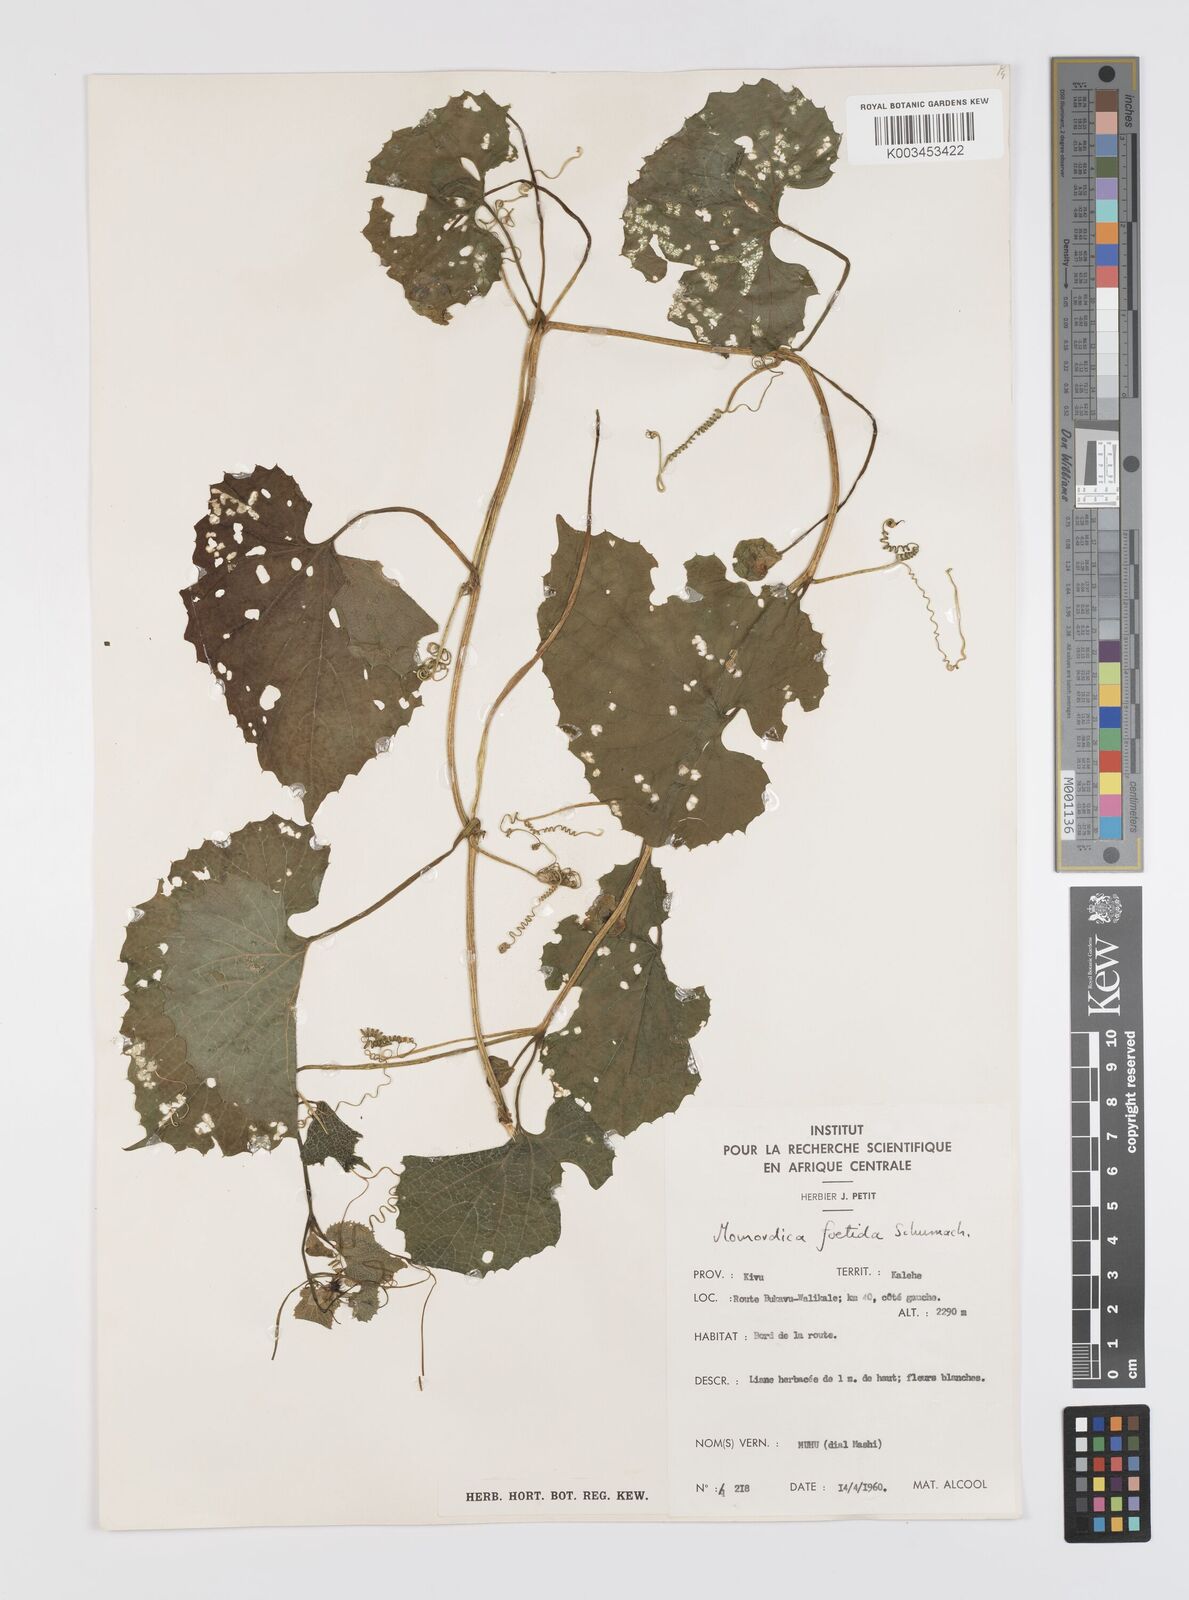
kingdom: Plantae
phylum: Tracheophyta
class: Magnoliopsida
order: Cucurbitales
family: Cucurbitaceae
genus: Momordica
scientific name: Momordica foetida
